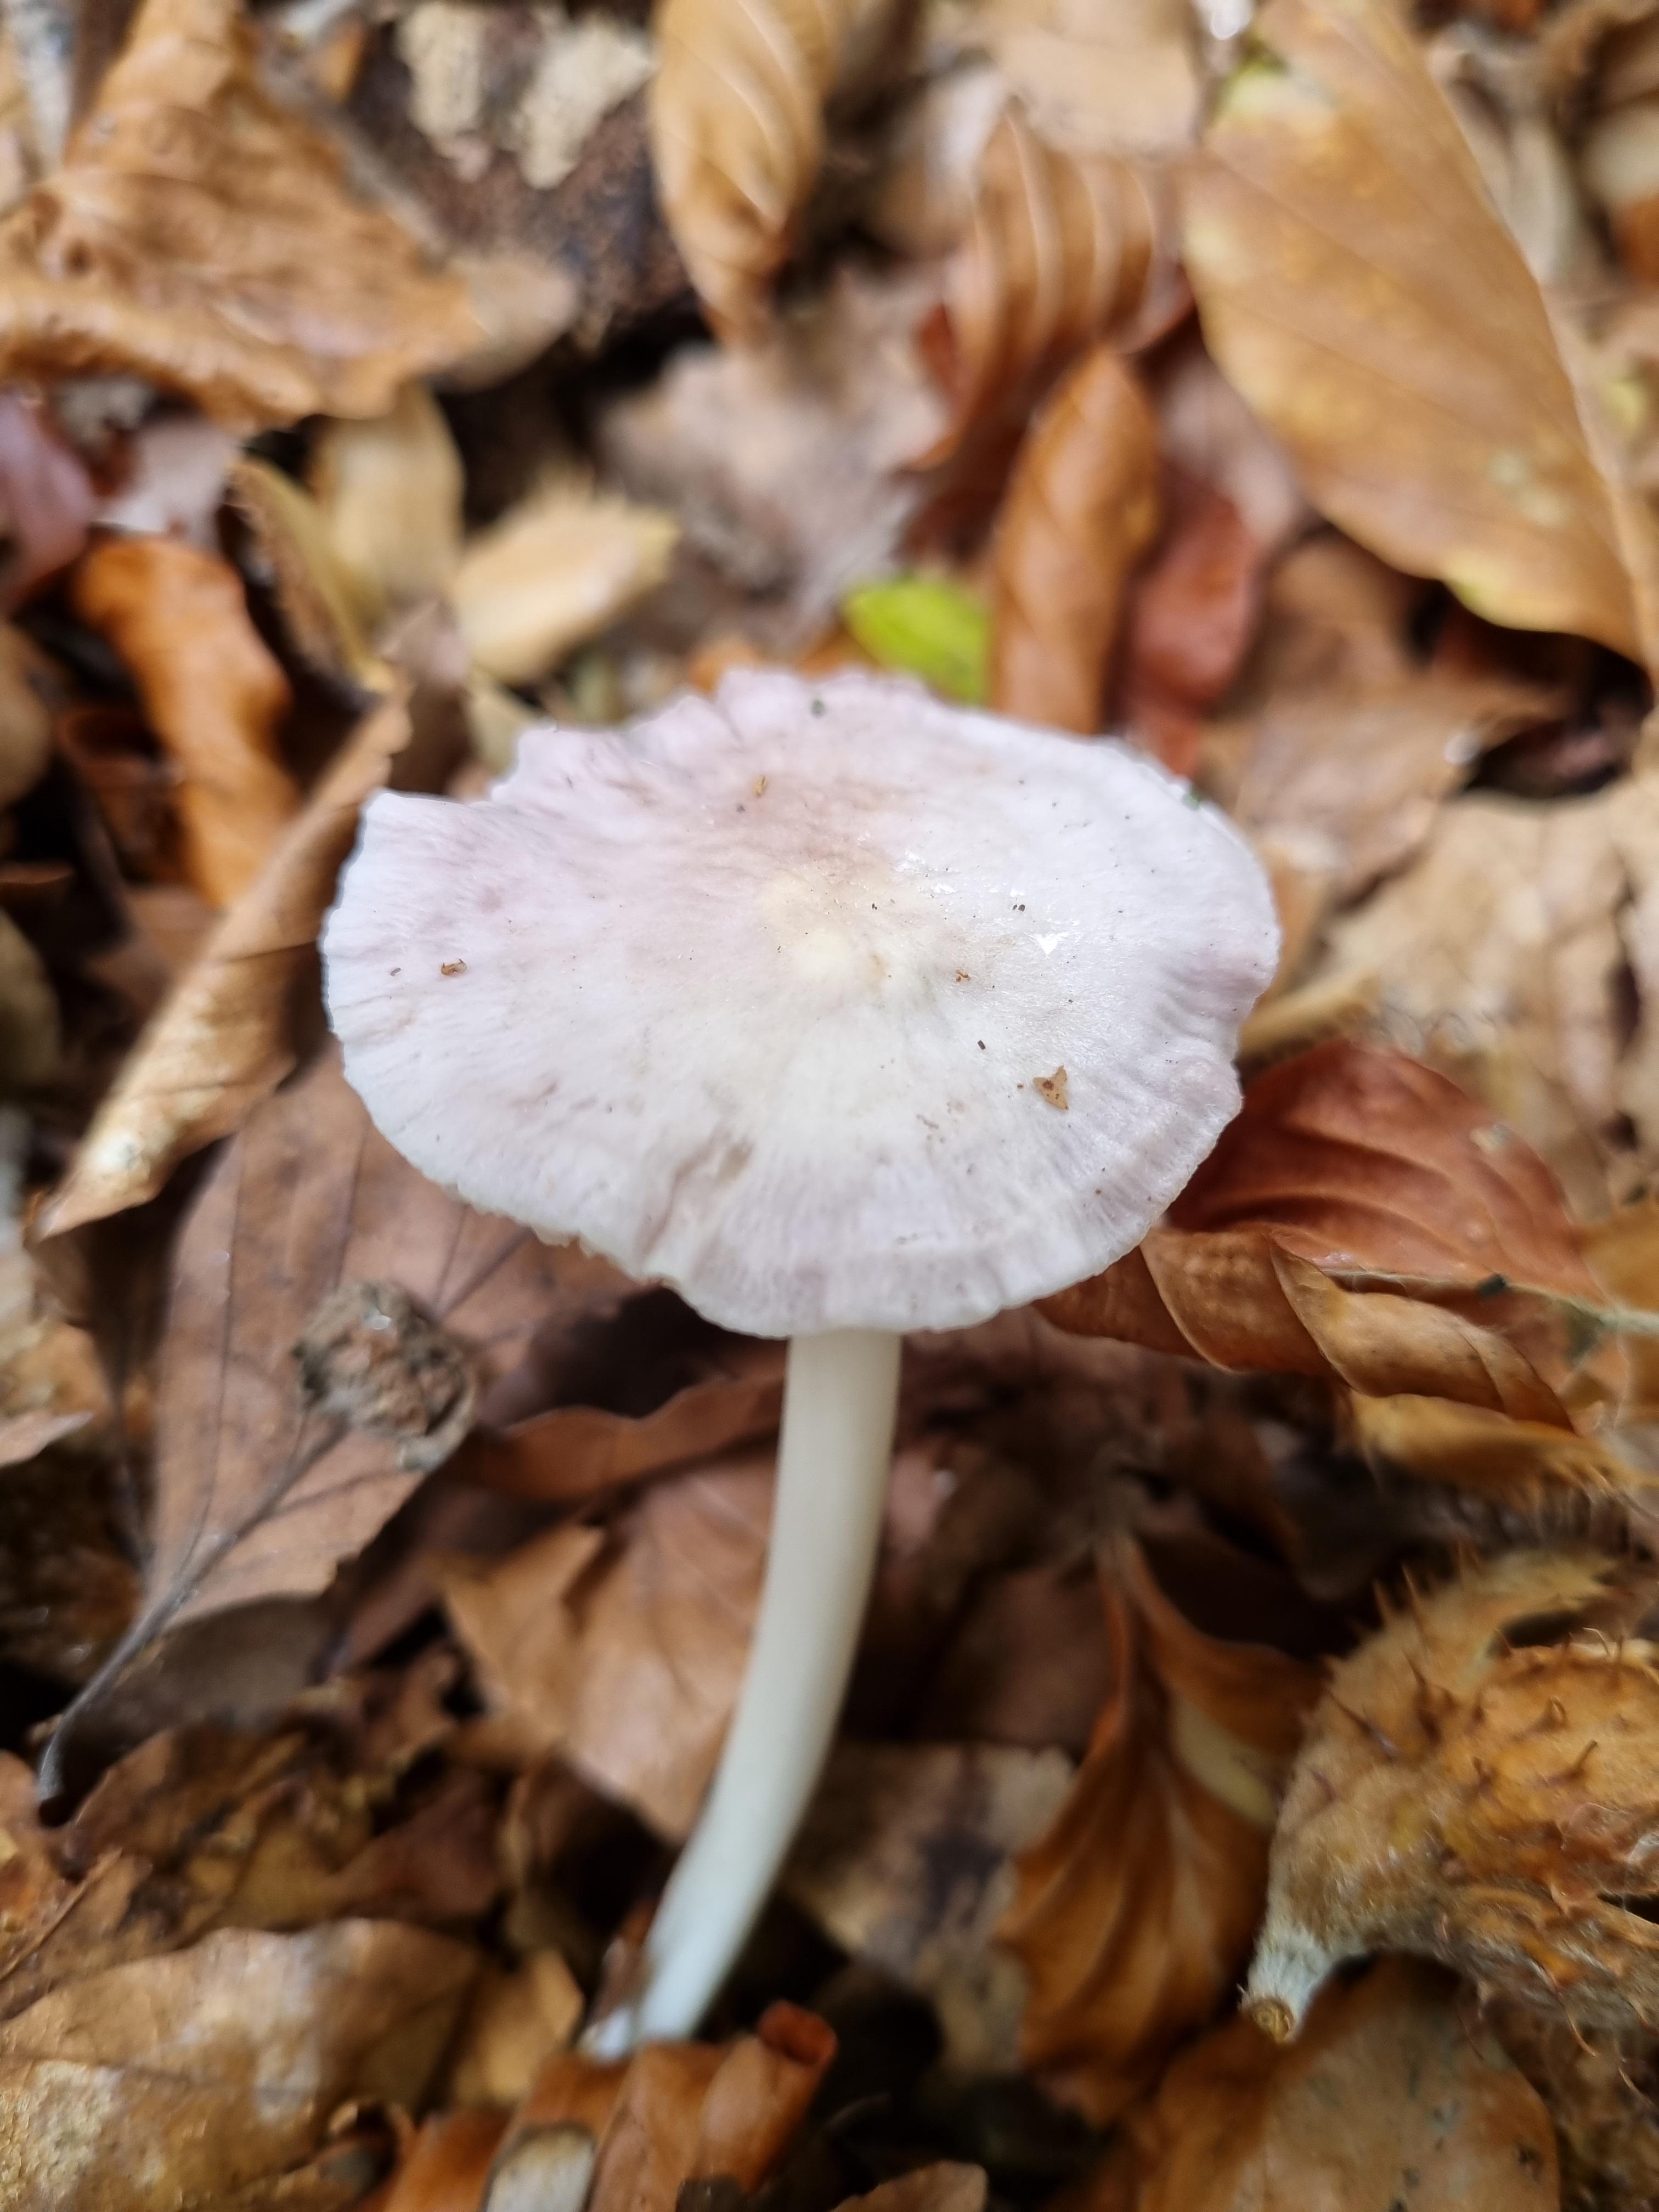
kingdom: Fungi
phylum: Basidiomycota
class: Agaricomycetes
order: Agaricales
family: Mycenaceae
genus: Mycena
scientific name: Mycena rosea
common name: rosa huesvamp
